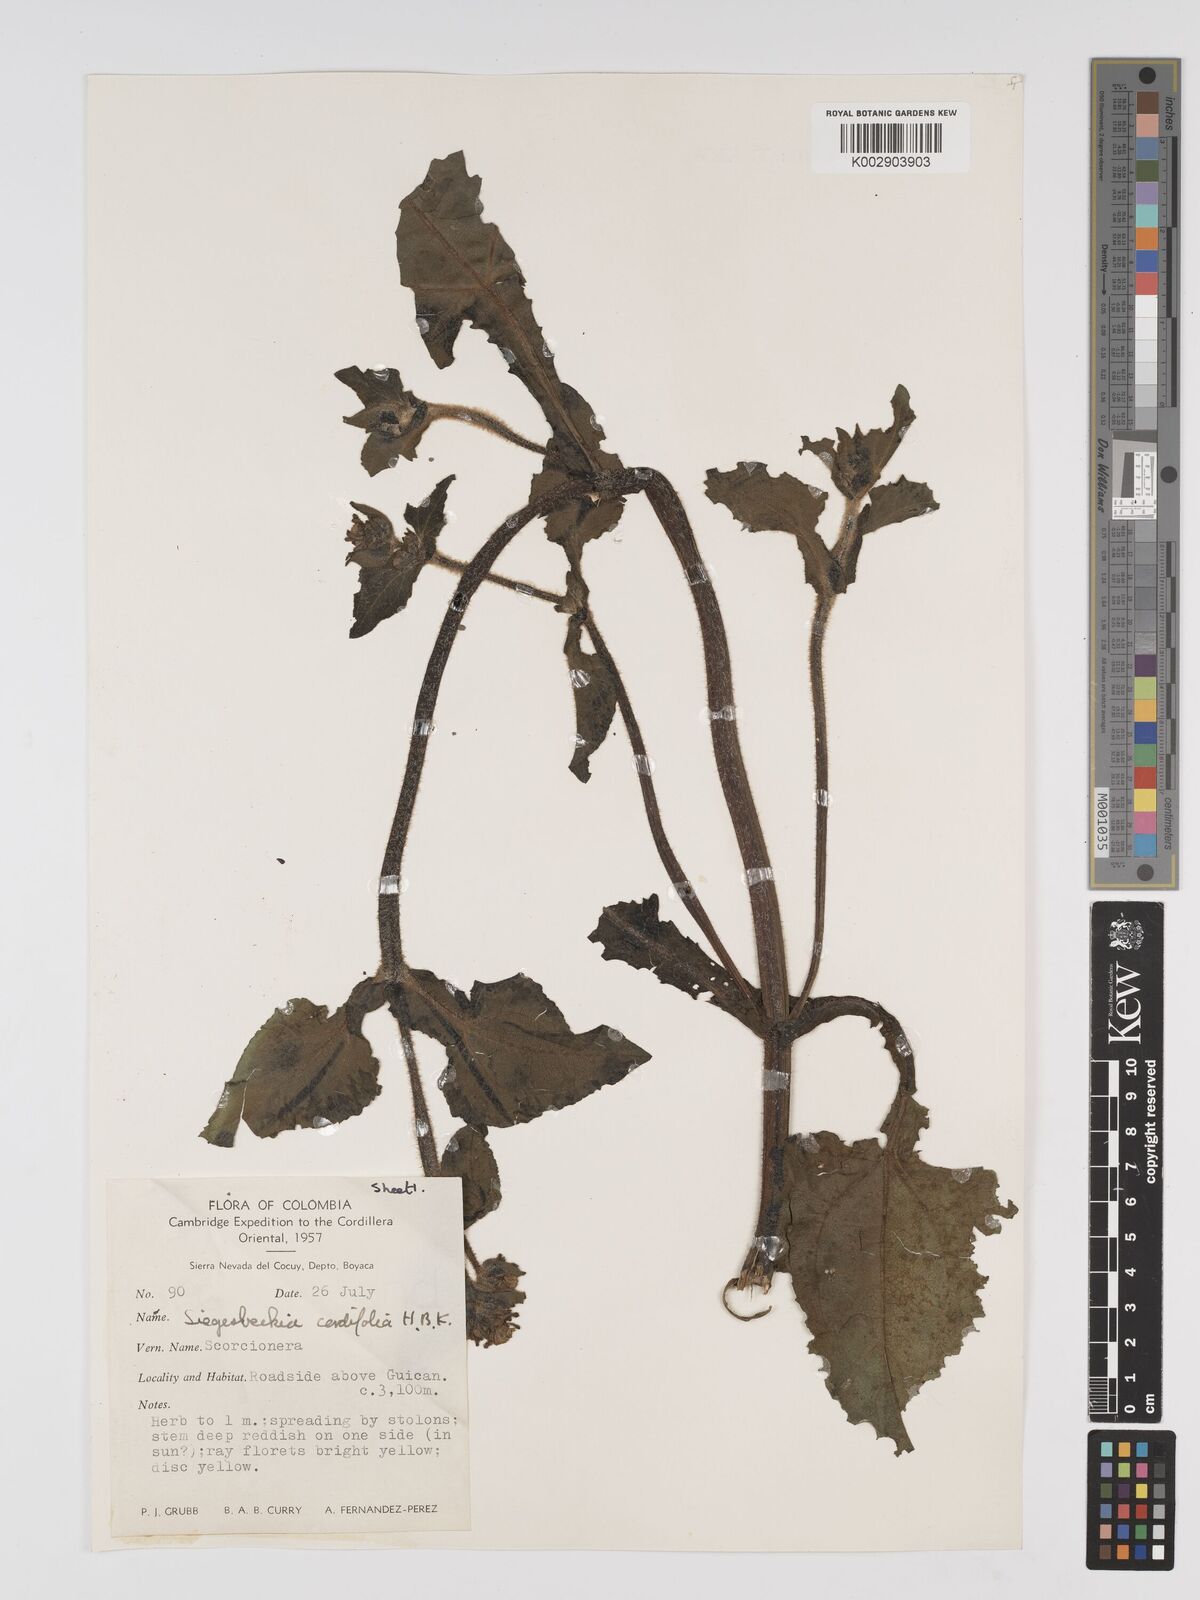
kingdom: Plantae
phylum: Tracheophyta
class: Magnoliopsida
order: Asterales
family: Asteraceae
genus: Sigesbeckia
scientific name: Sigesbeckia jorullensis
